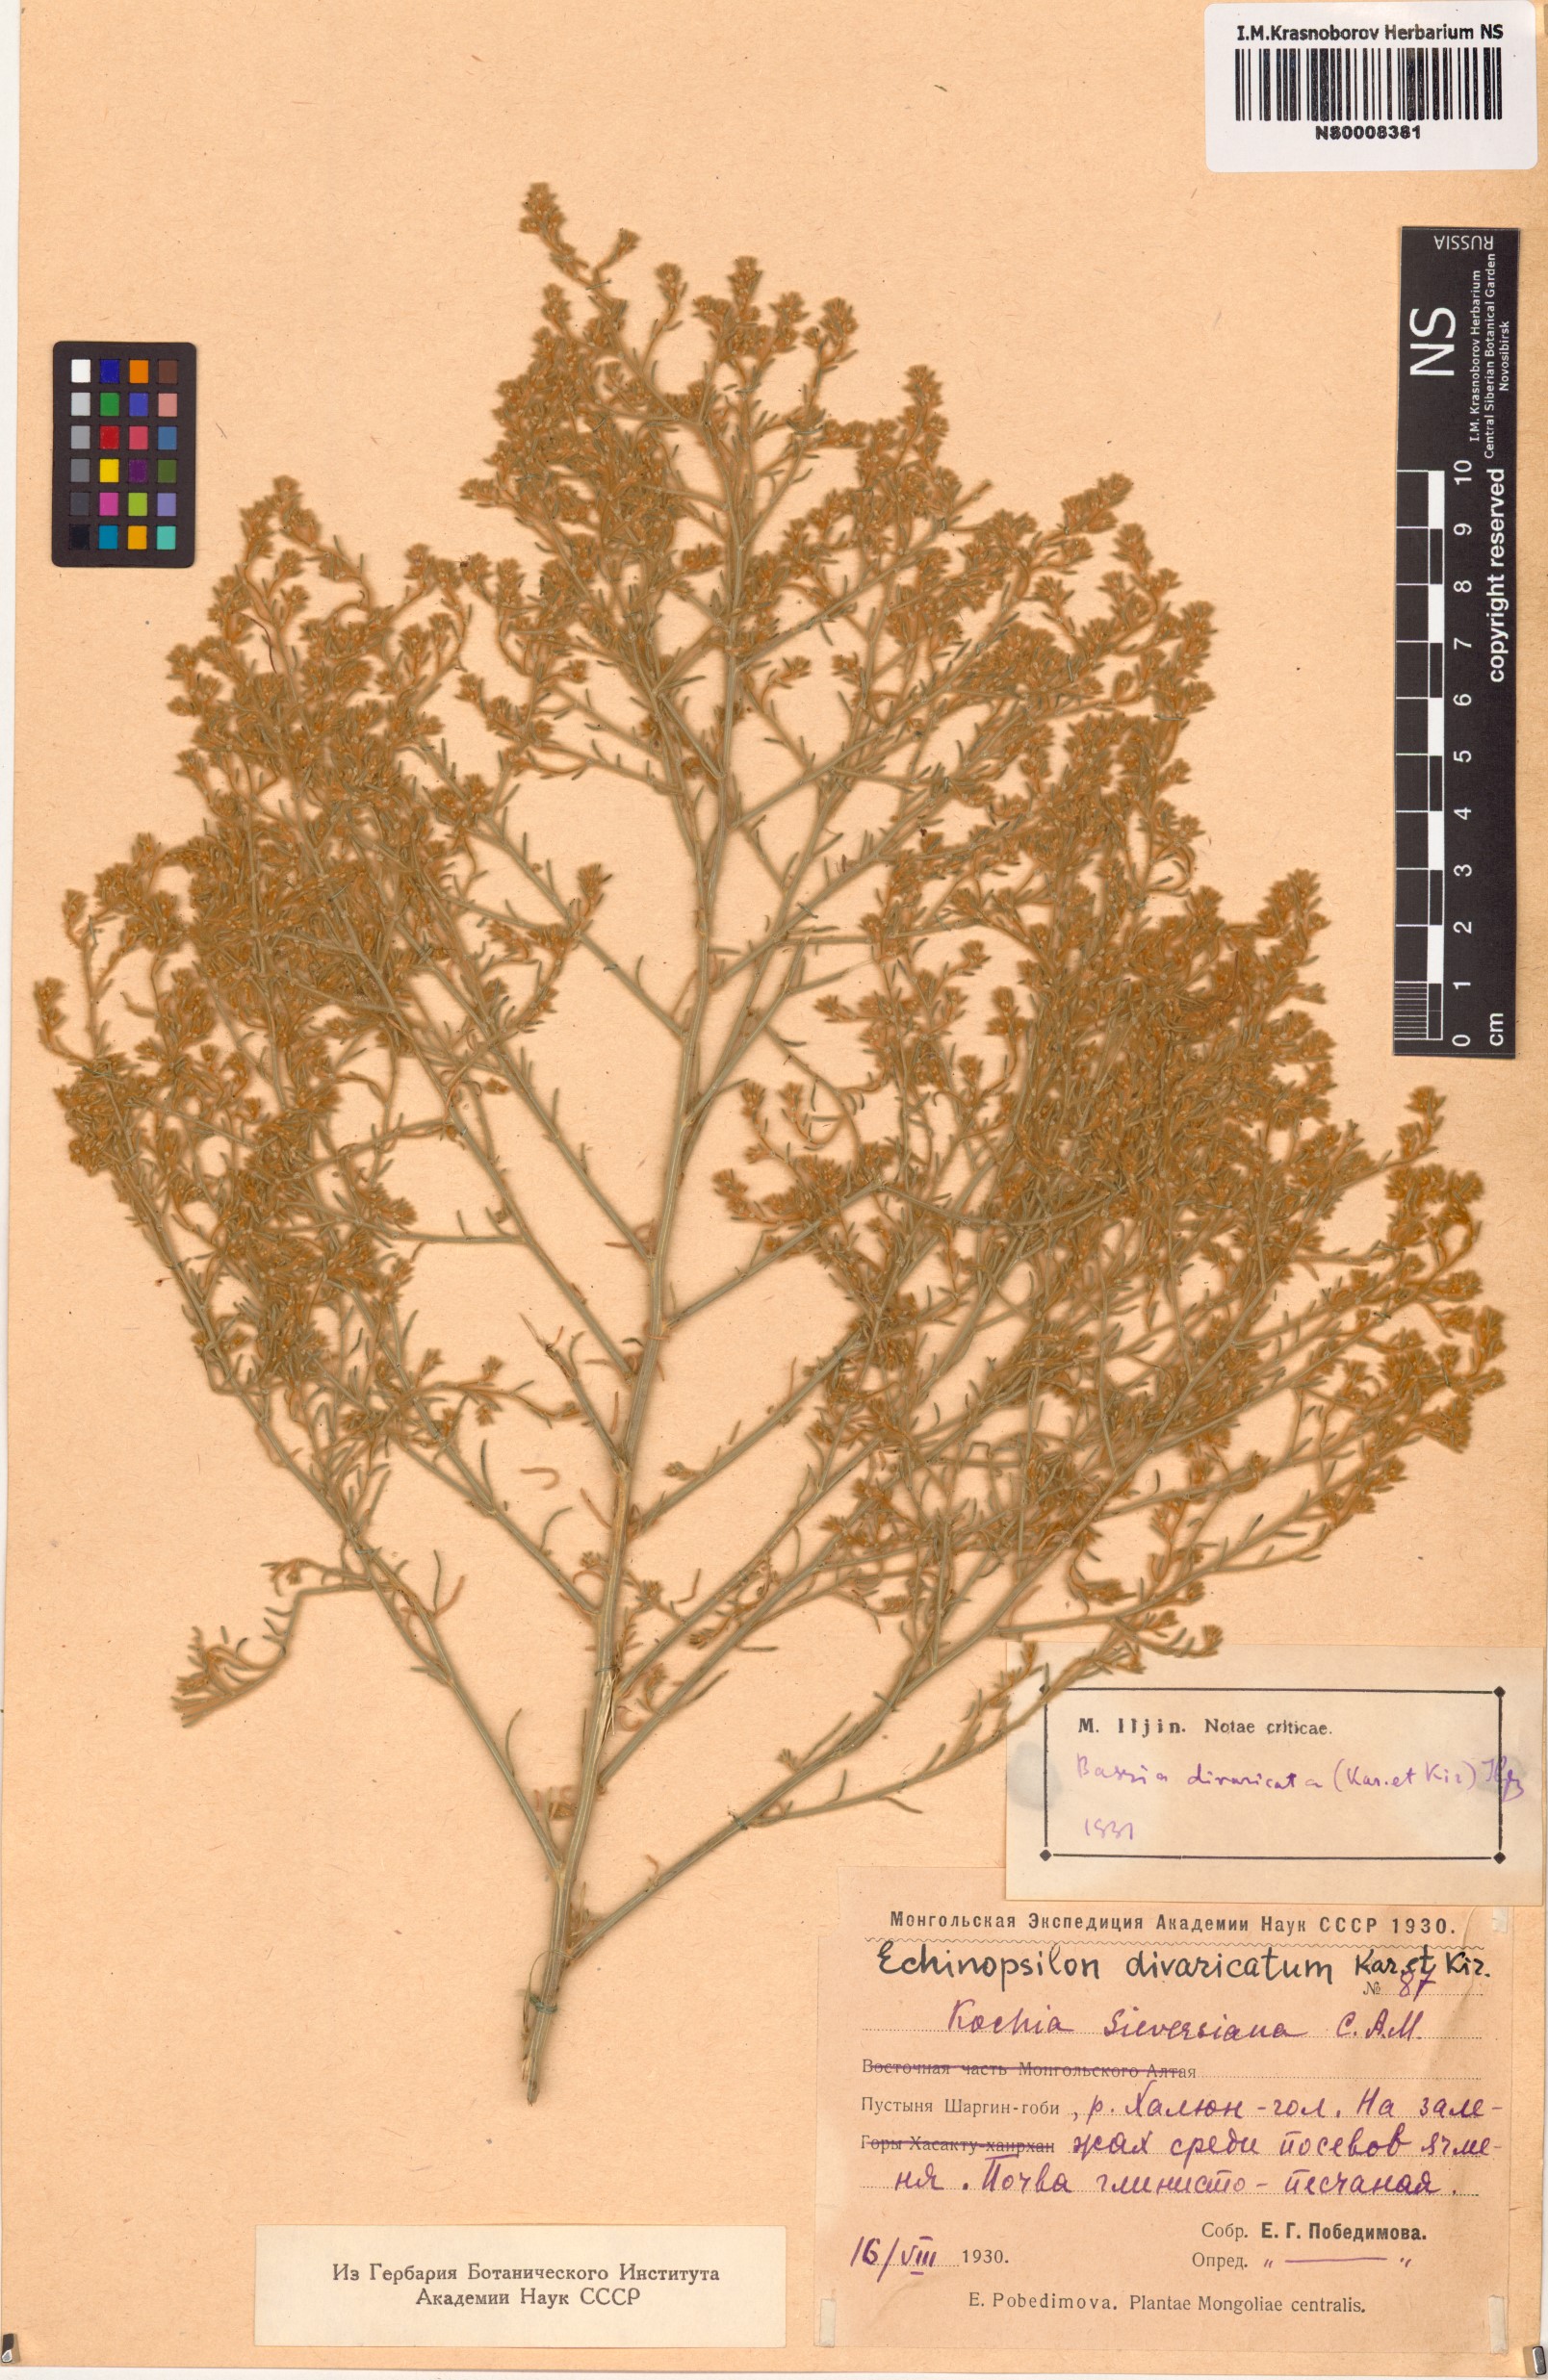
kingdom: Plantae
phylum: Tracheophyta
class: Magnoliopsida
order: Caryophyllales
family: Amaranthaceae
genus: Grubovia
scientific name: Grubovia dasyphylla
